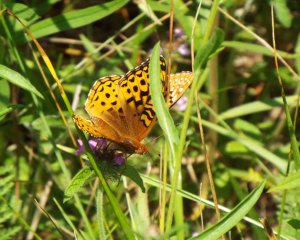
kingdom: Animalia
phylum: Arthropoda
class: Insecta
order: Lepidoptera
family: Nymphalidae
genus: Speyeria
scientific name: Speyeria aphrodite
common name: Aphrodite Fritillary
